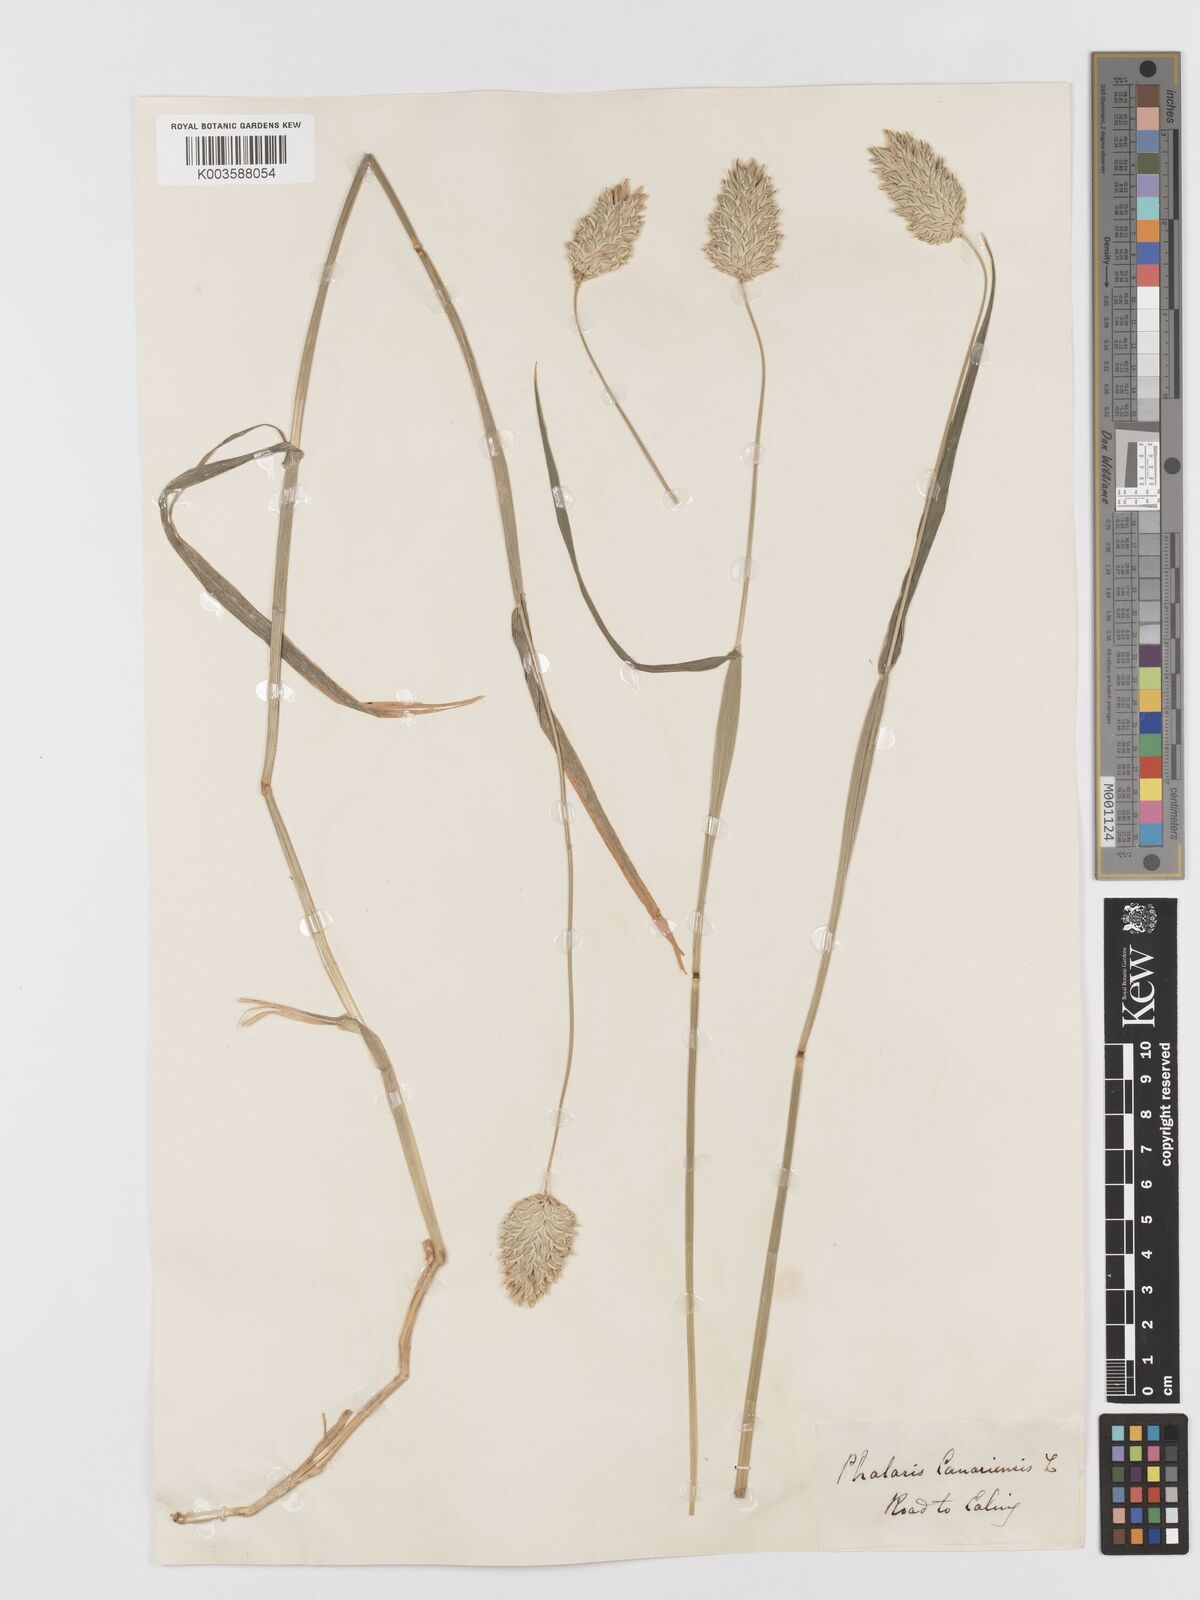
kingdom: Plantae
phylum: Tracheophyta
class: Liliopsida
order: Poales
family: Poaceae
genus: Phalaris
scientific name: Phalaris canariensis
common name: Annual canarygrass
